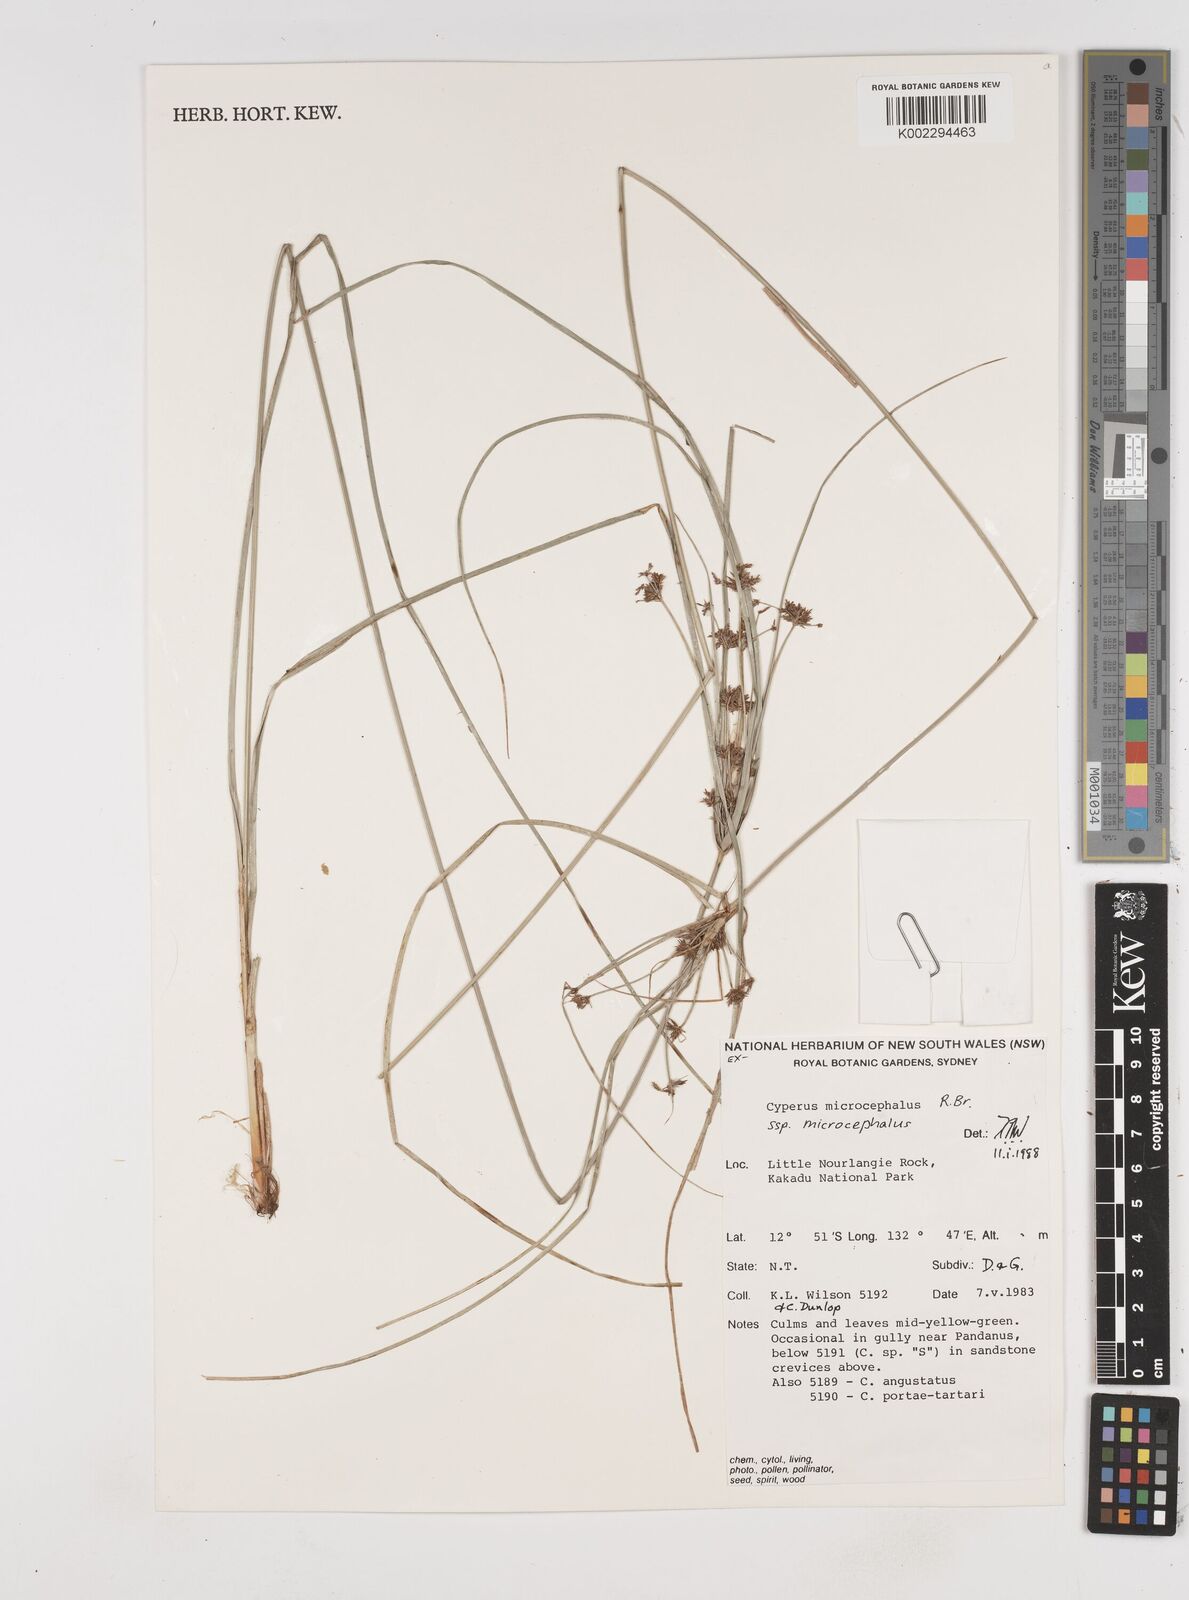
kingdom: Plantae
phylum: Tracheophyta
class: Liliopsida
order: Poales
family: Cyperaceae
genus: Cyperus
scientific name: Cyperus microcephalus
